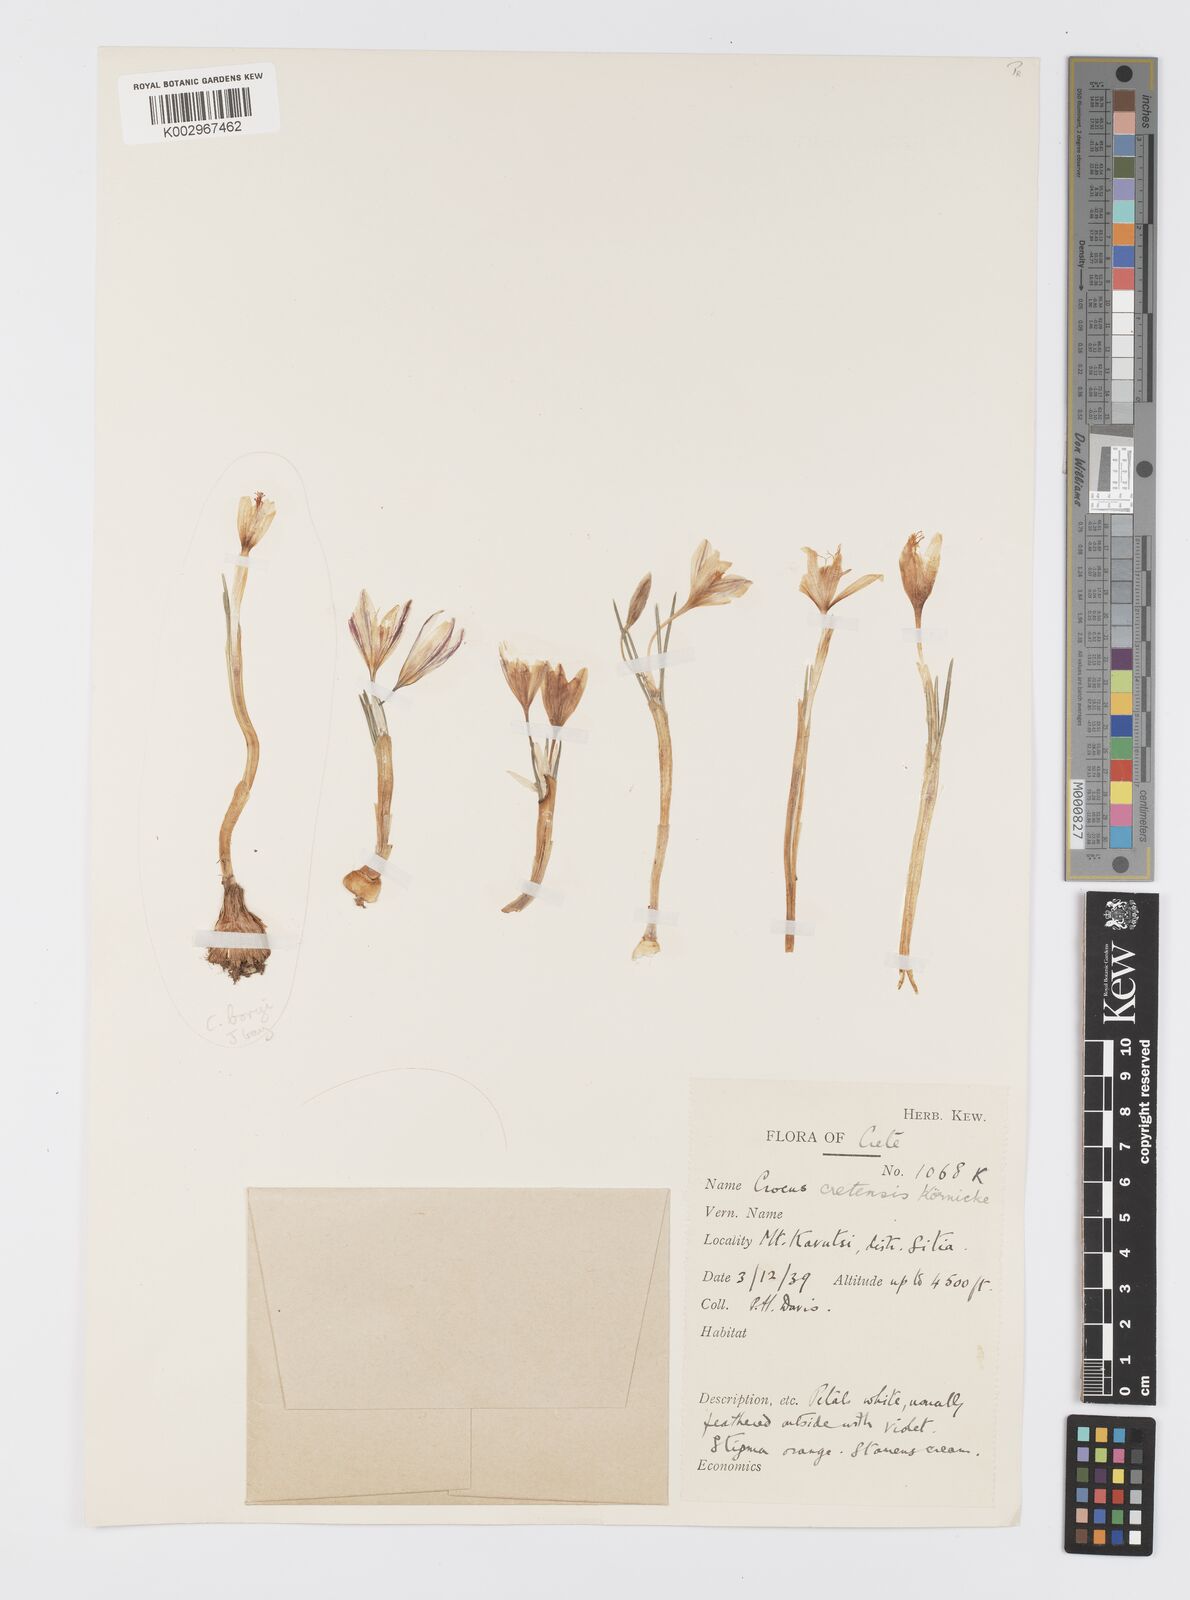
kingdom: Plantae
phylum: Tracheophyta
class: Liliopsida
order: Asparagales
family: Iridaceae
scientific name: Iridaceae
